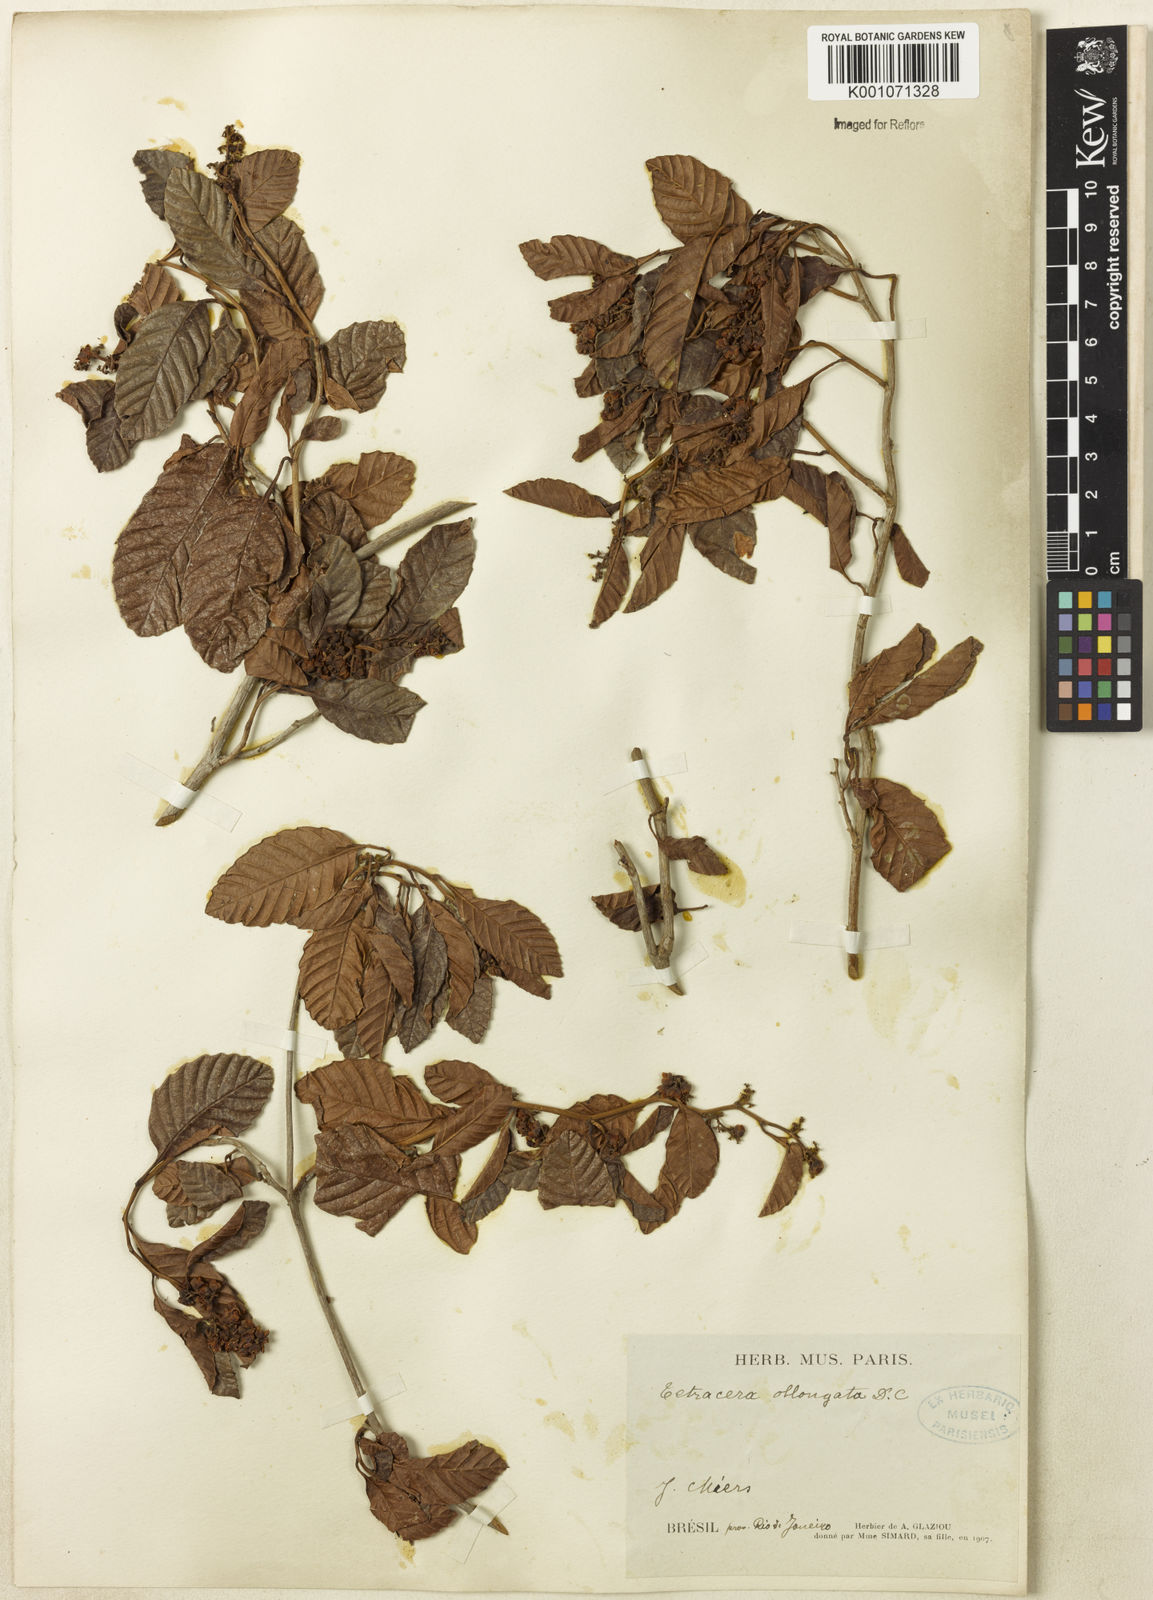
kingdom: Plantae
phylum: Tracheophyta
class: Magnoliopsida
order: Dilleniales
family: Dilleniaceae
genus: Tetracera
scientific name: Tetracera oblongata
